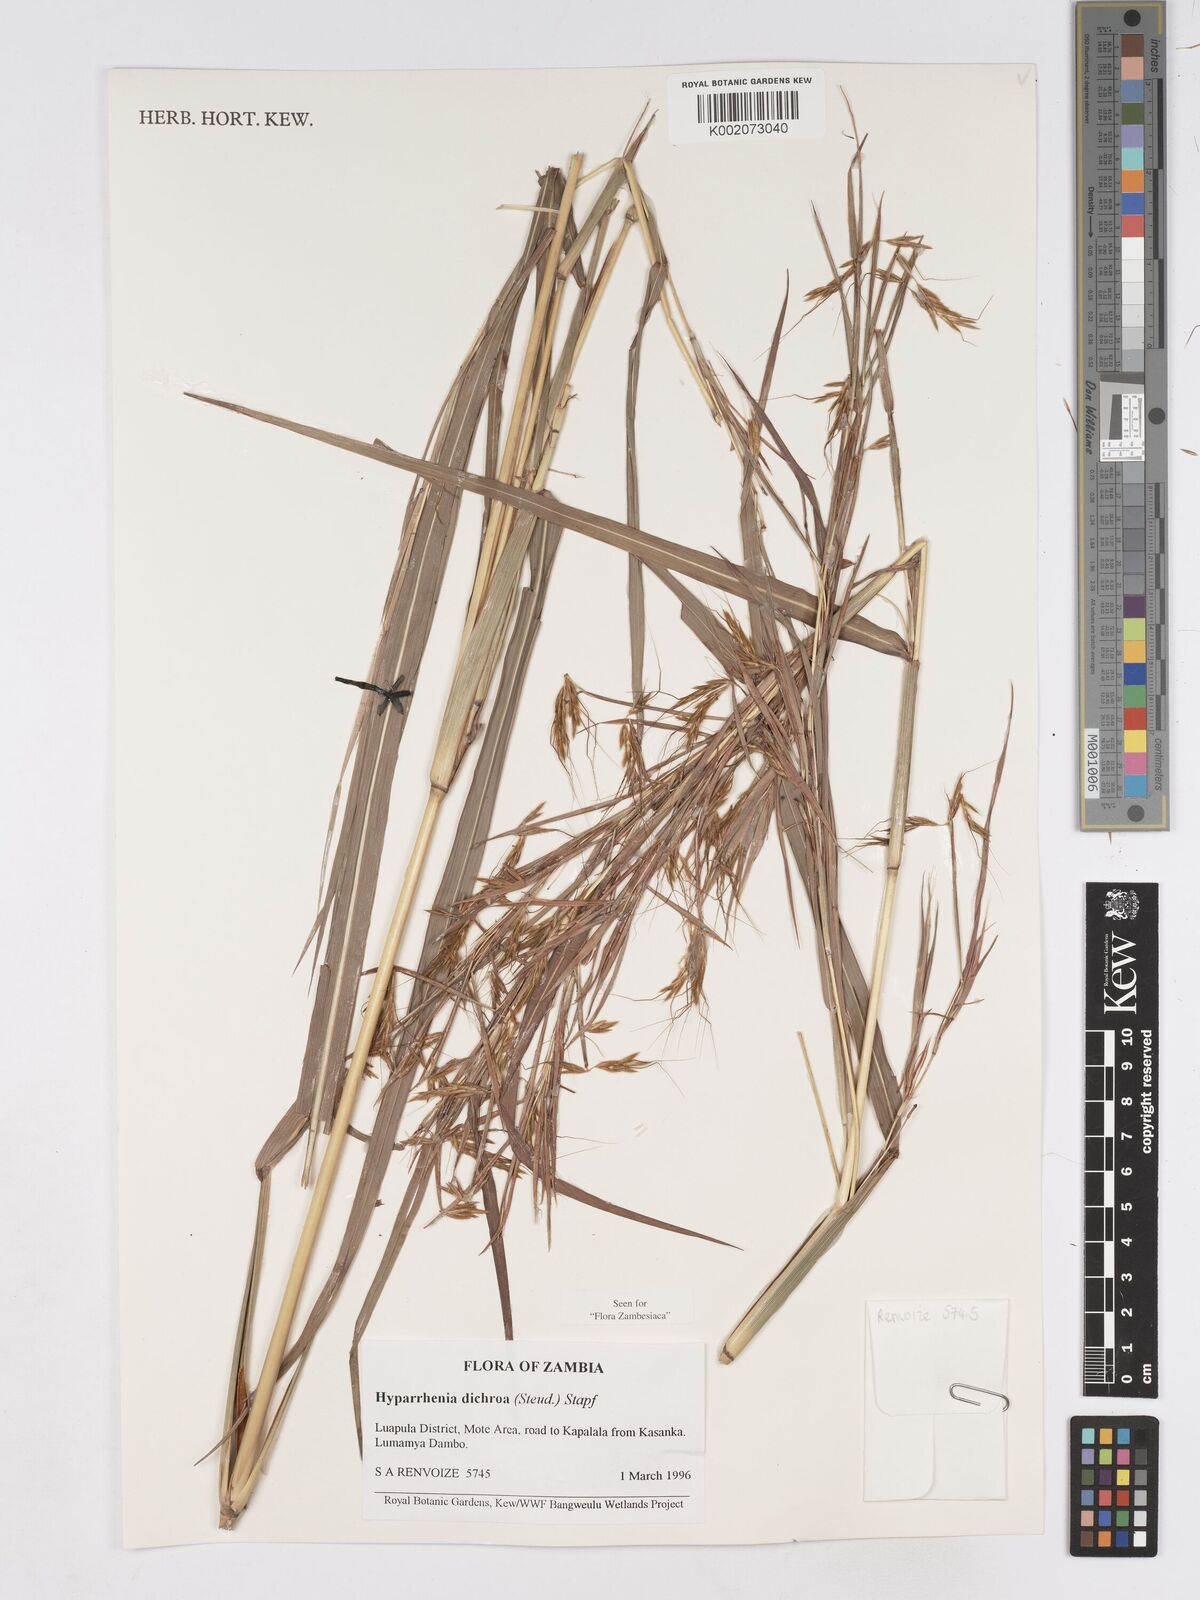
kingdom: Plantae
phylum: Tracheophyta
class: Liliopsida
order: Poales
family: Poaceae
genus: Hyparrhenia
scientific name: Hyparrhenia dichroa
